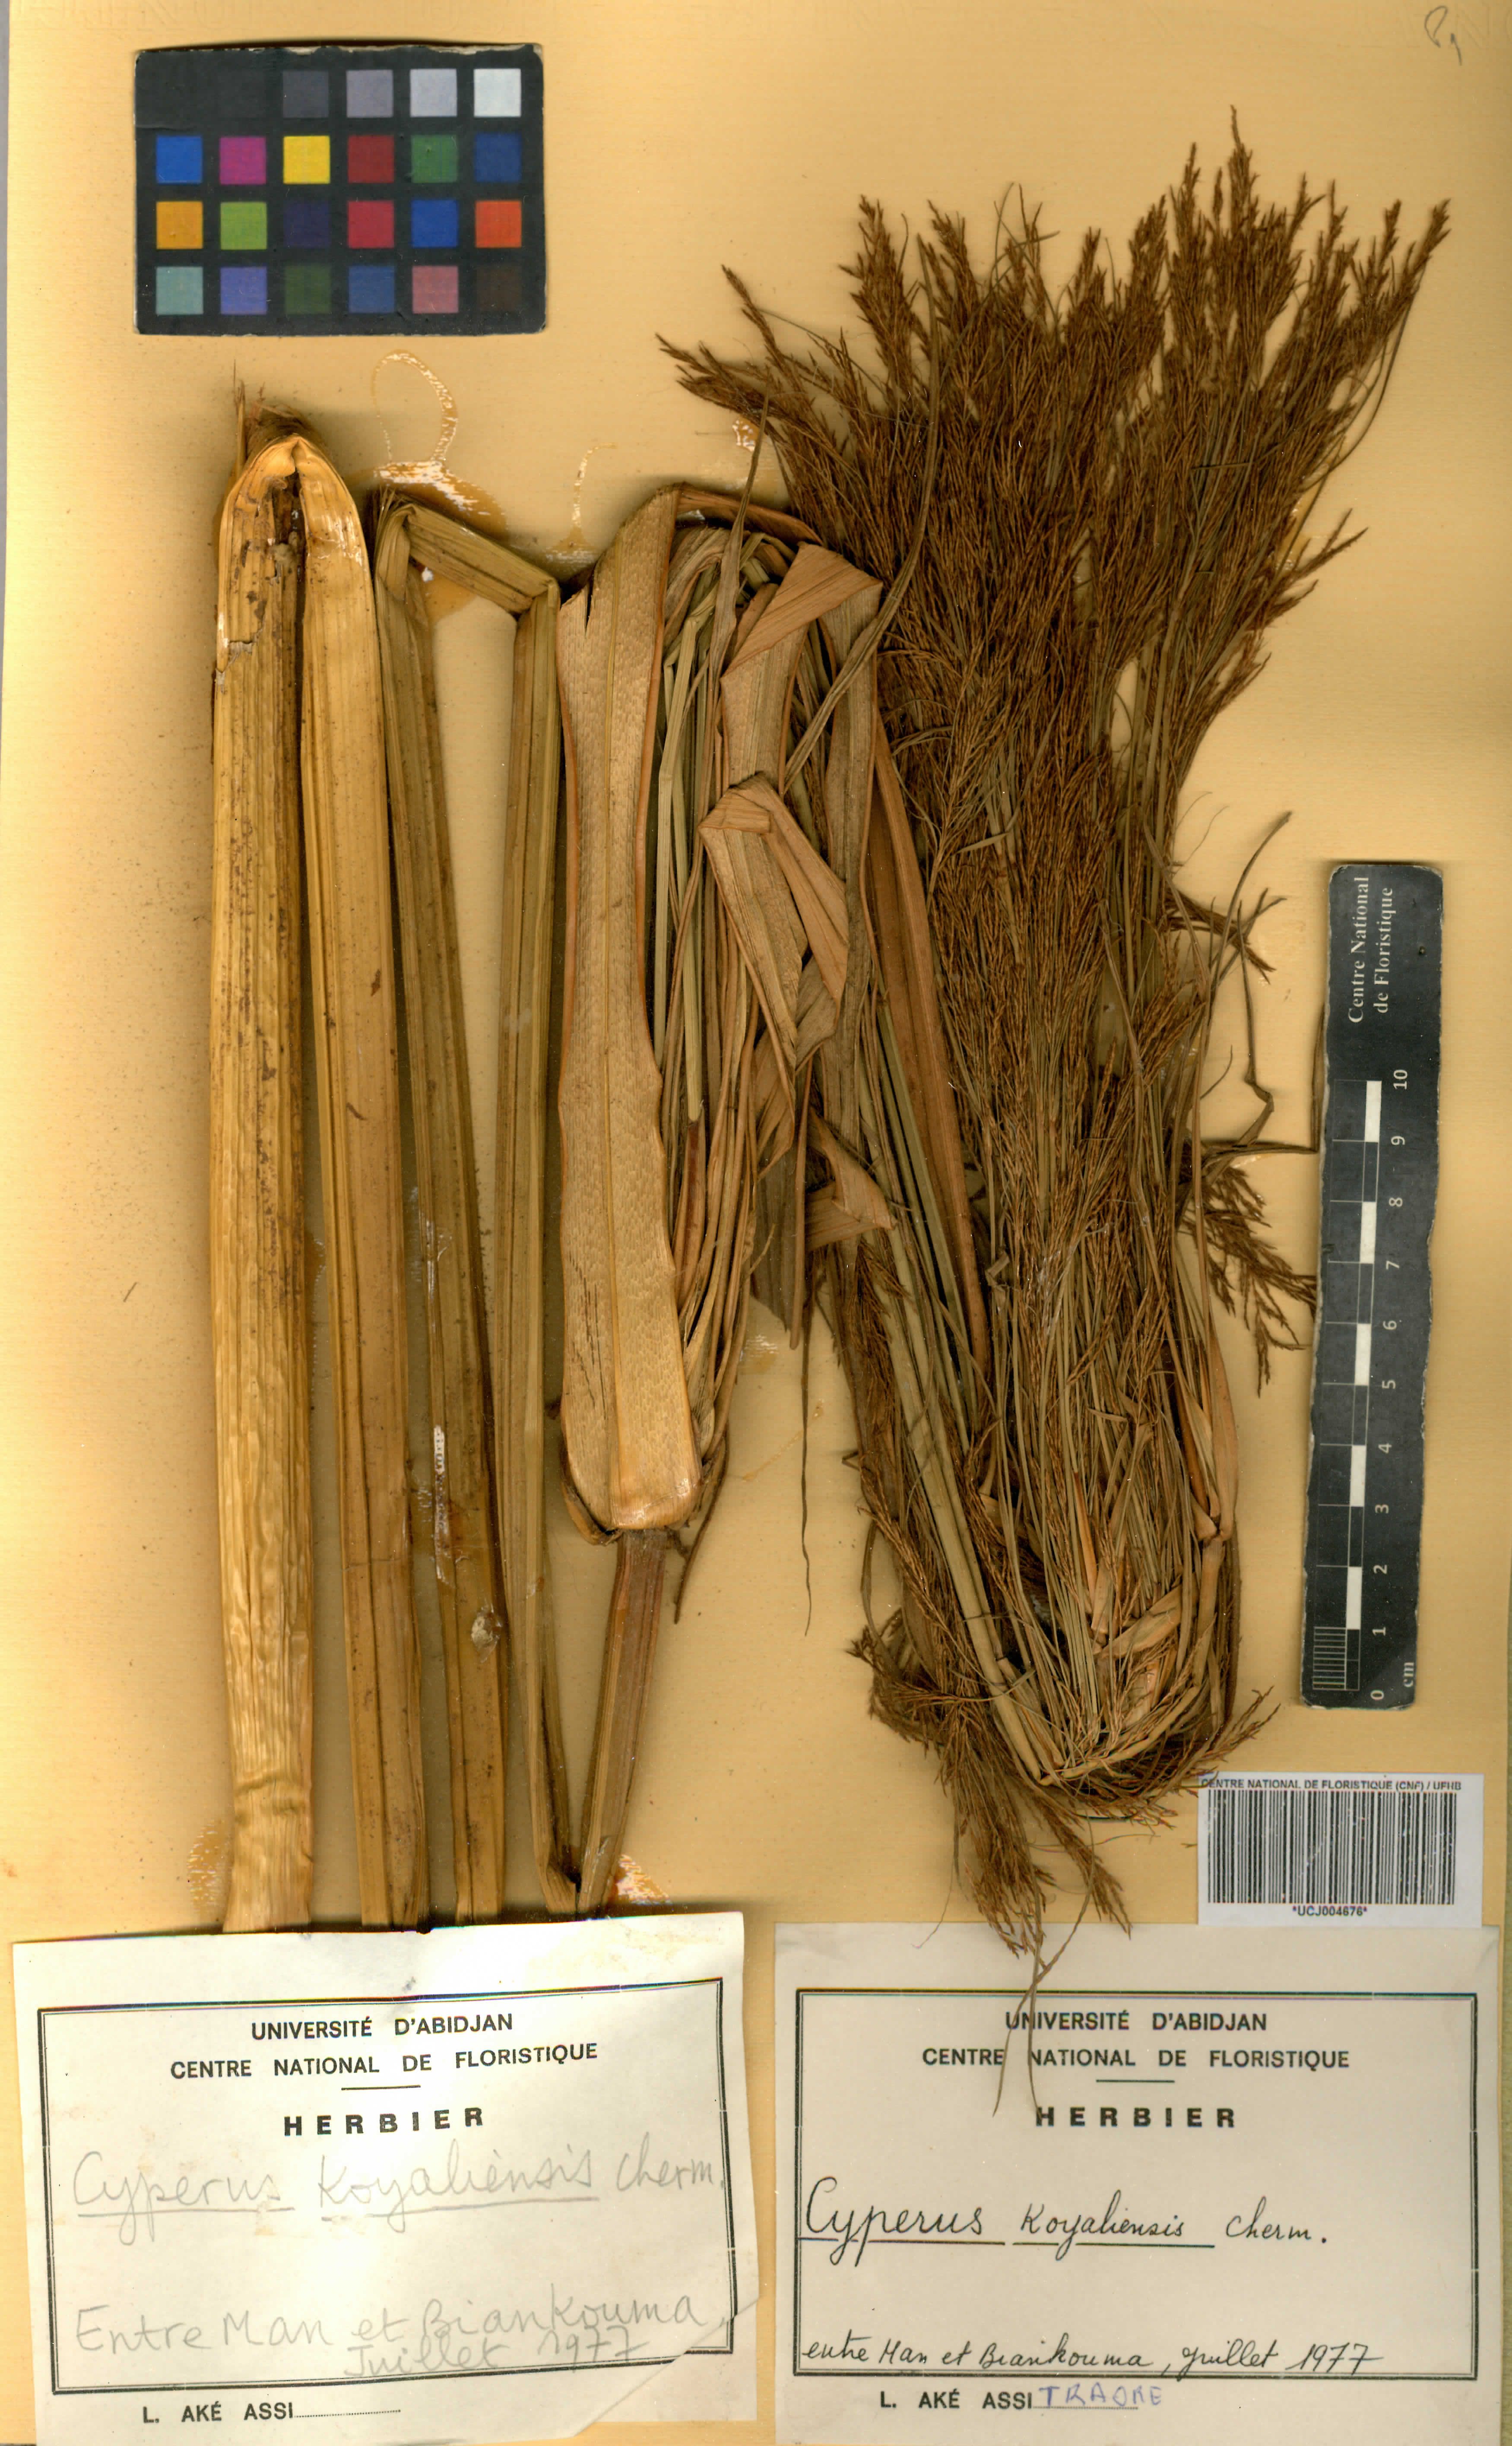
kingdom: Plantae
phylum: Tracheophyta
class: Liliopsida
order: Poales
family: Cyperaceae
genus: Cyperus
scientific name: Cyperus koyaliensis
